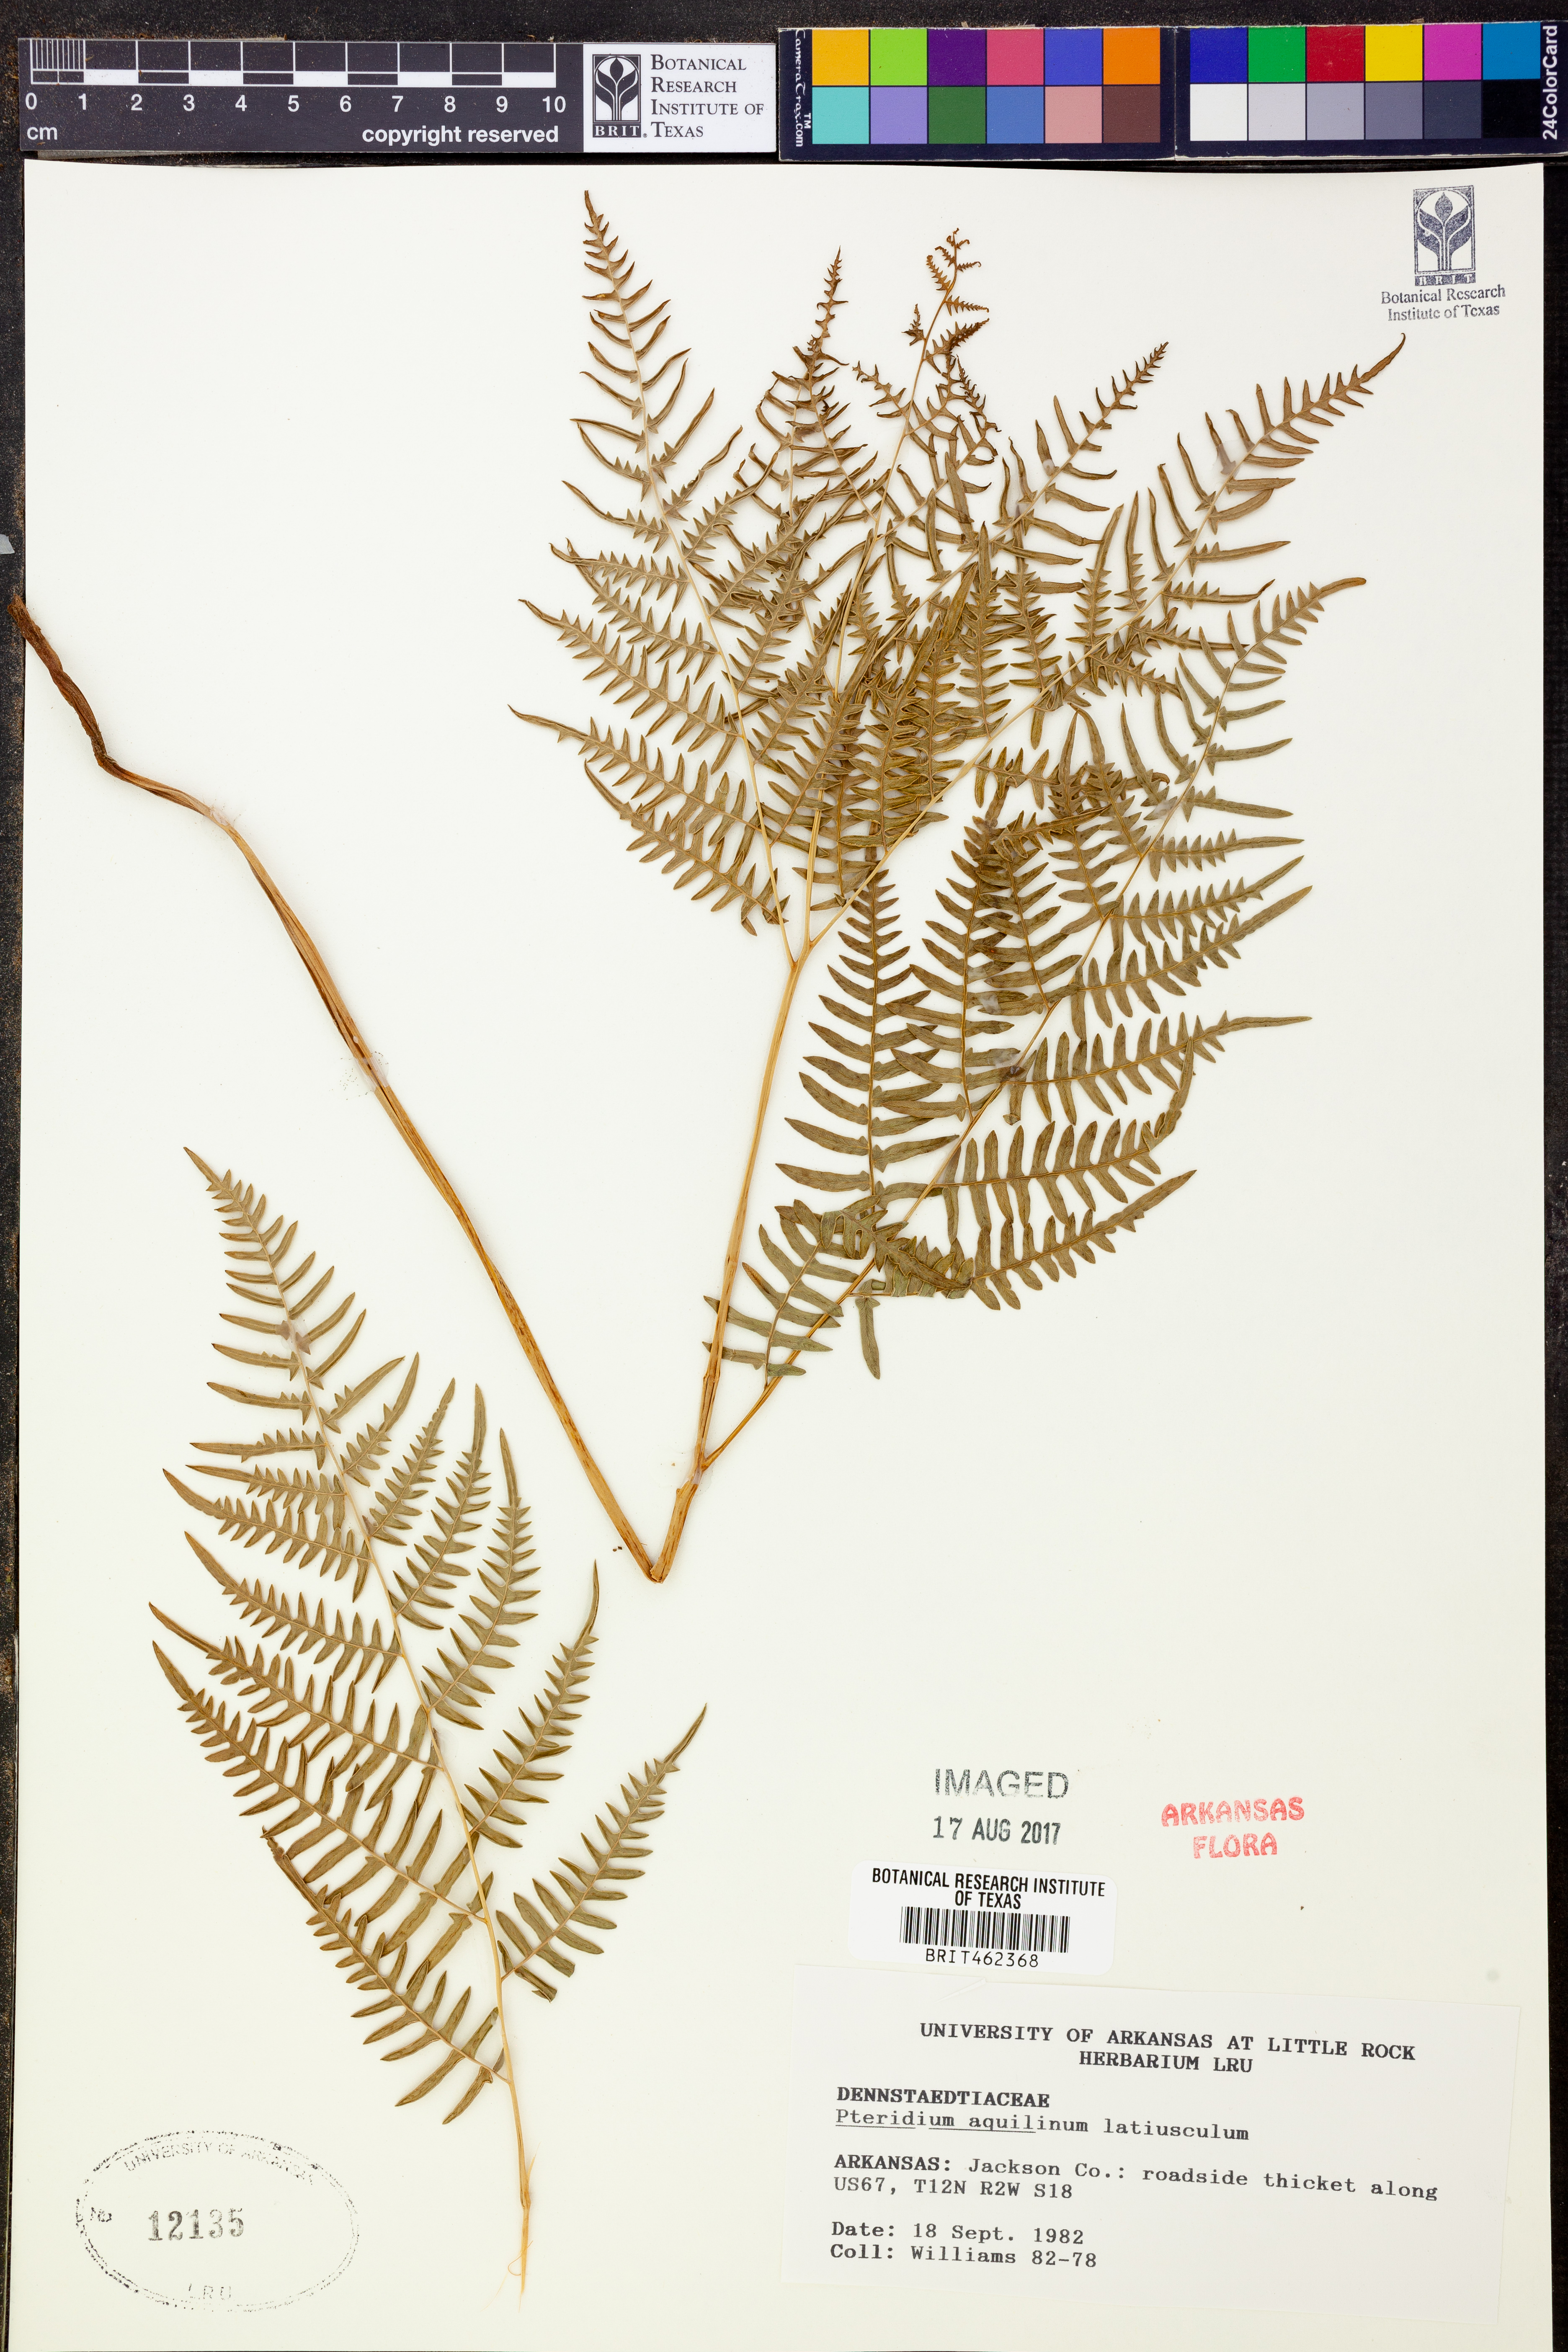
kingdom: Plantae
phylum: Tracheophyta
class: Polypodiopsida
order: Polypodiales
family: Dennstaedtiaceae
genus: Pteridium
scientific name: Pteridium aquilinum
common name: Bracken
